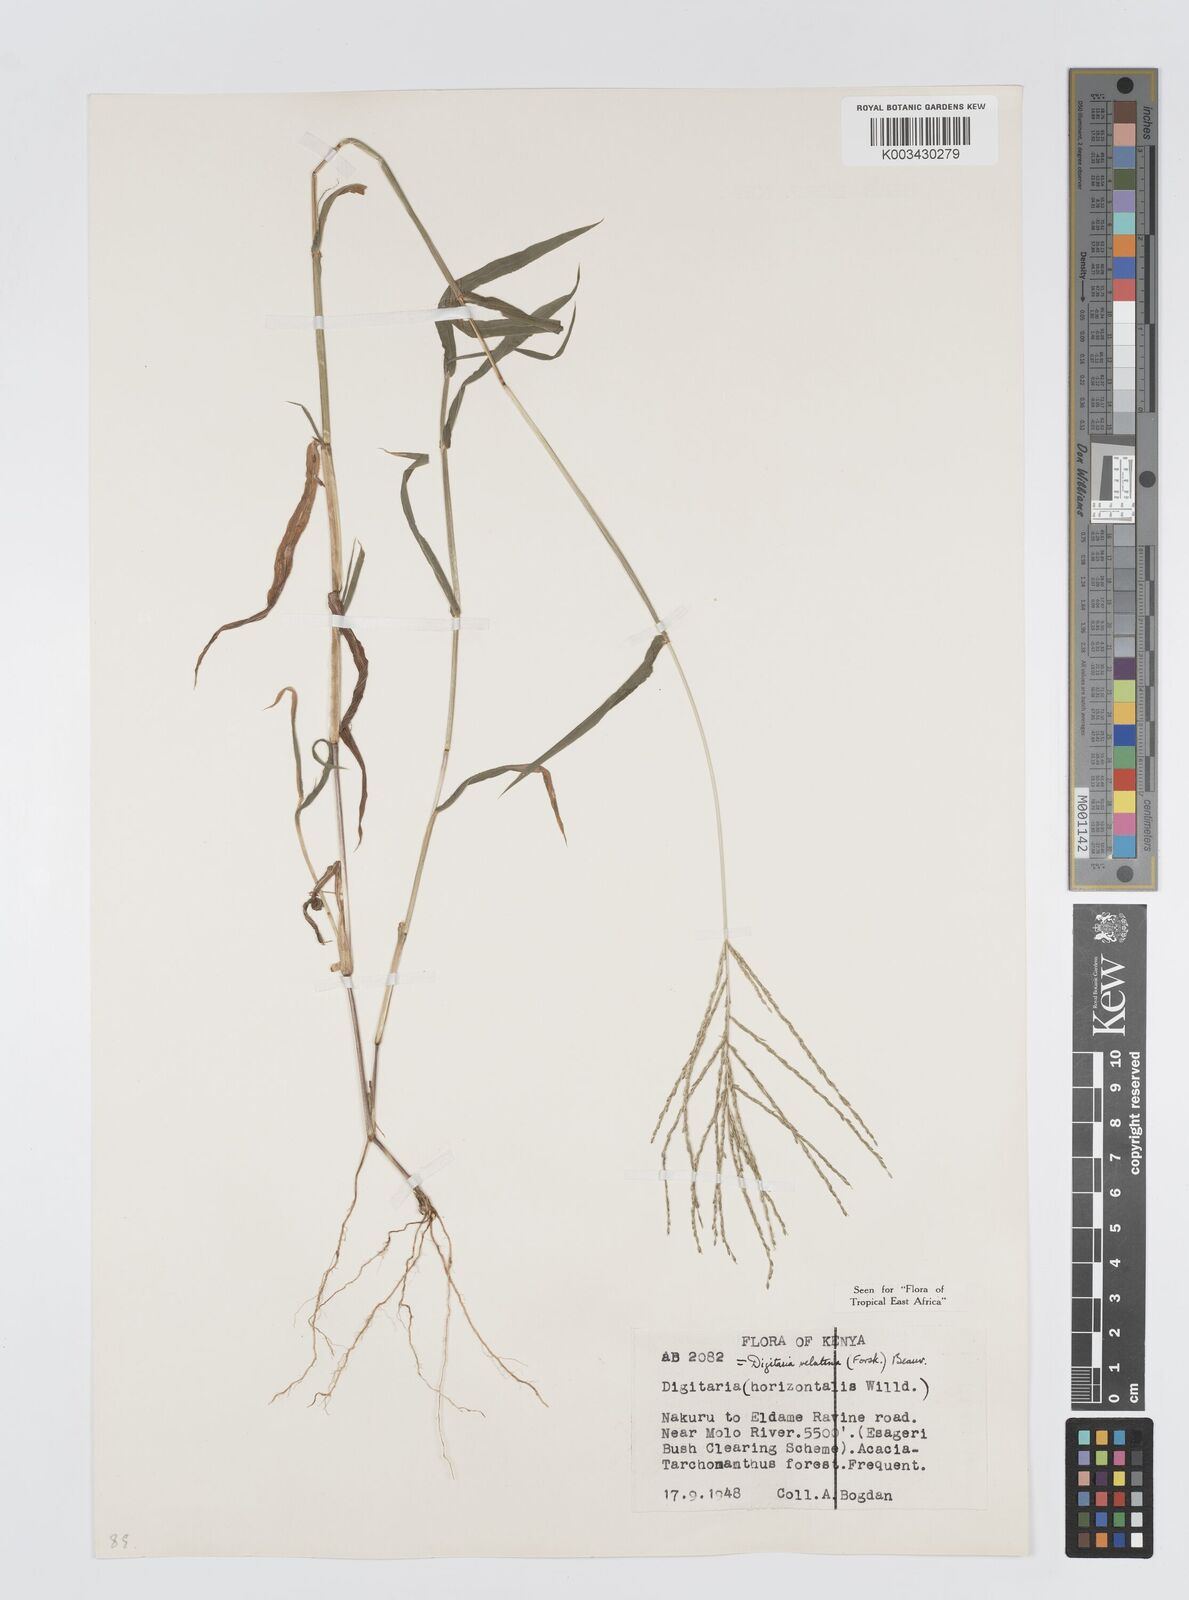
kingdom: Plantae
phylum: Tracheophyta
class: Liliopsida
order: Poales
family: Poaceae
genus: Digitaria
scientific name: Digitaria velutina
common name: Long-plume finger grass
